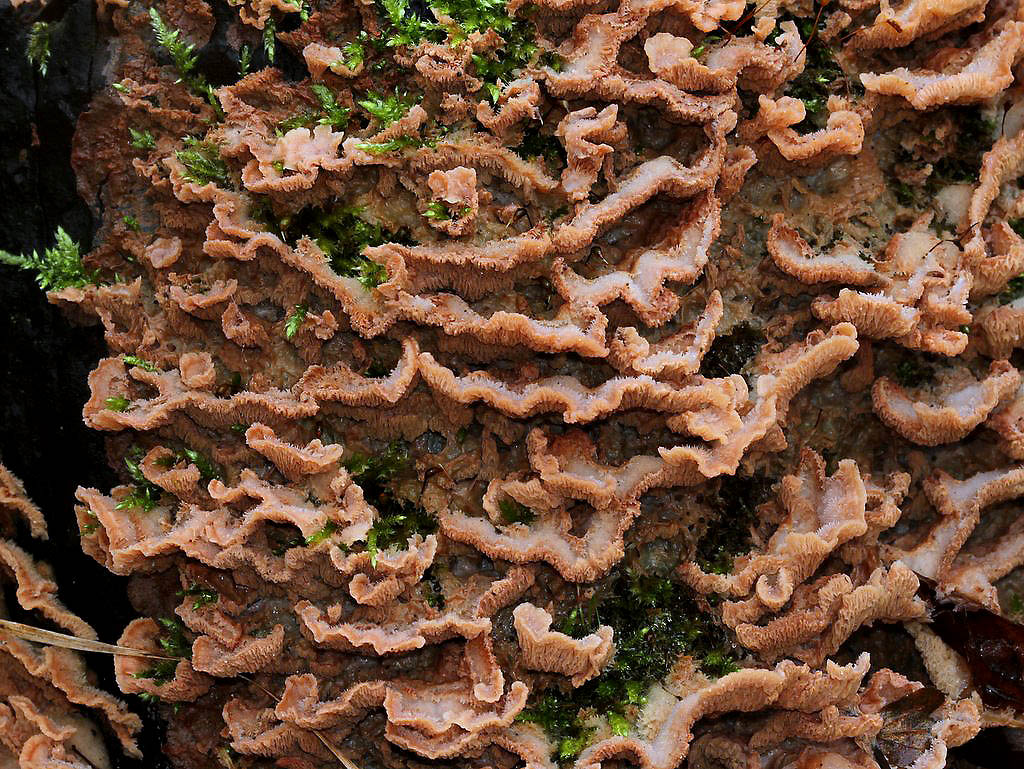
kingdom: Fungi
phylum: Basidiomycota
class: Agaricomycetes
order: Polyporales
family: Meruliaceae
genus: Phlebia
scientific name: Phlebia tremellosa
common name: bævrende åresvamp
